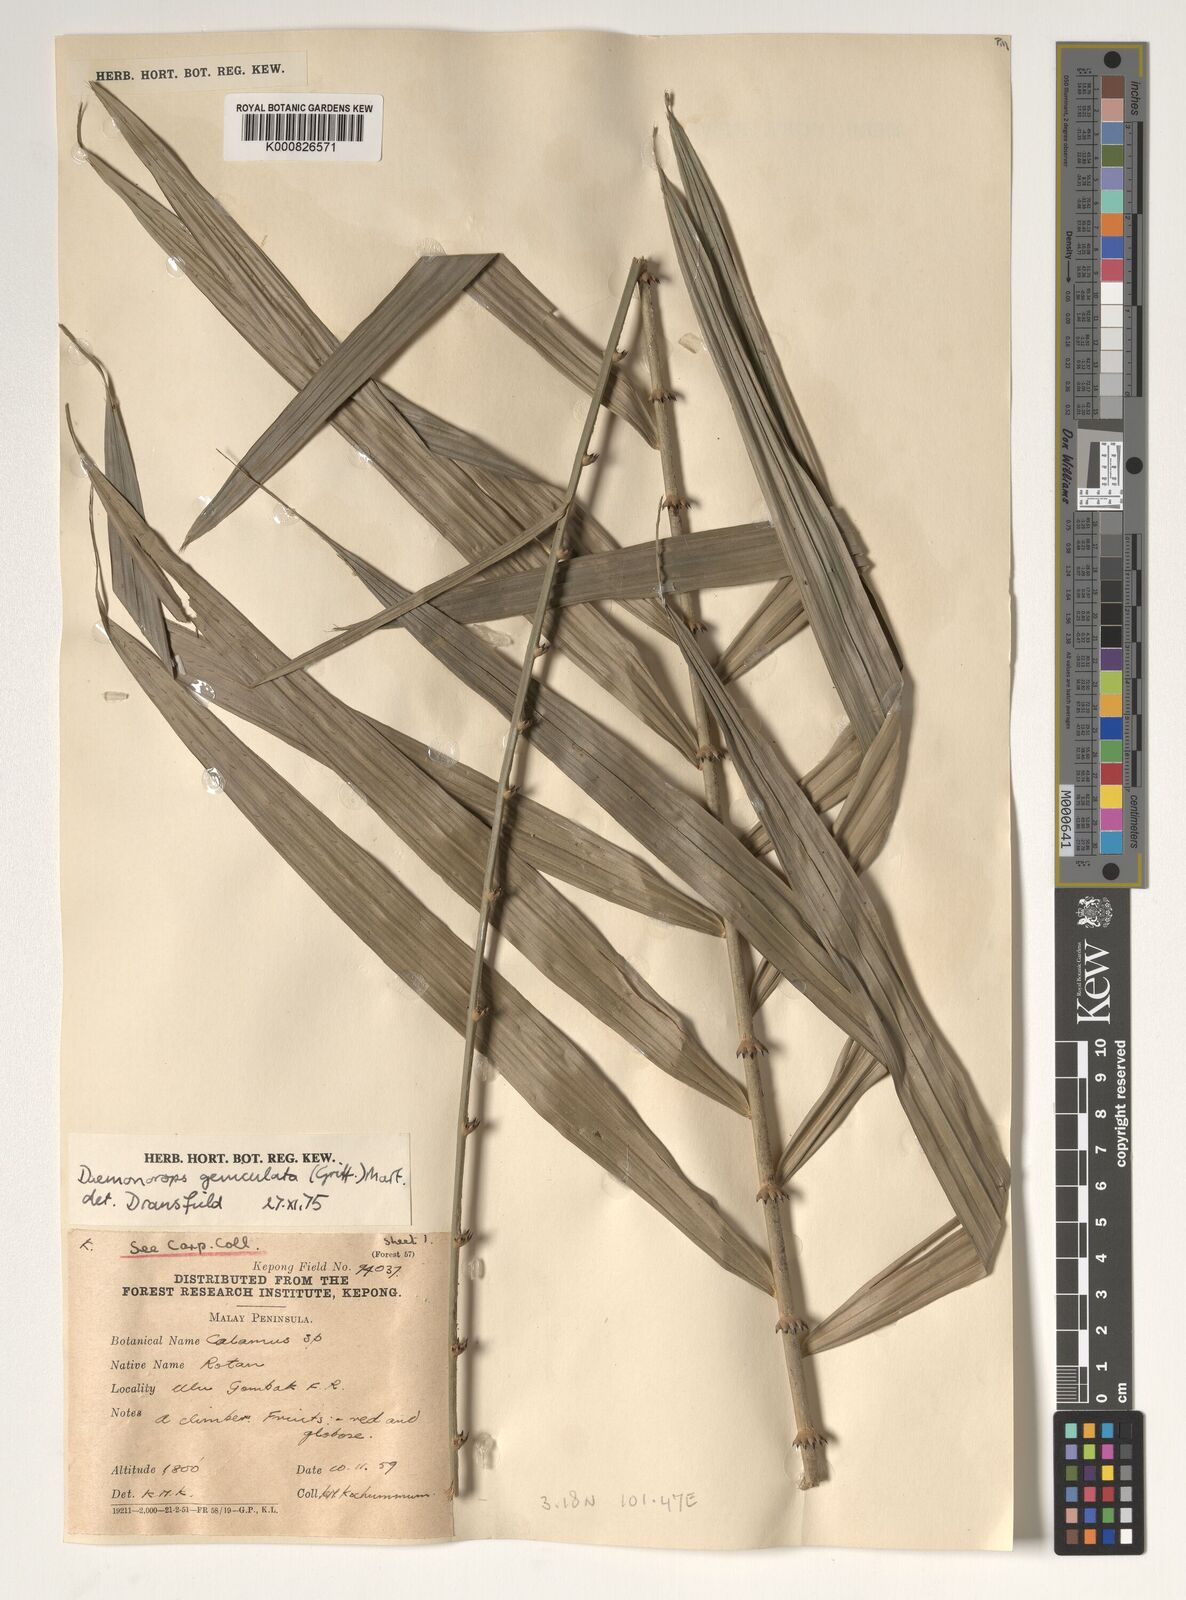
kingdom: Plantae
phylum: Tracheophyta
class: Liliopsida
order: Arecales
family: Arecaceae
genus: Calamus
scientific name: Calamus geniculatus
